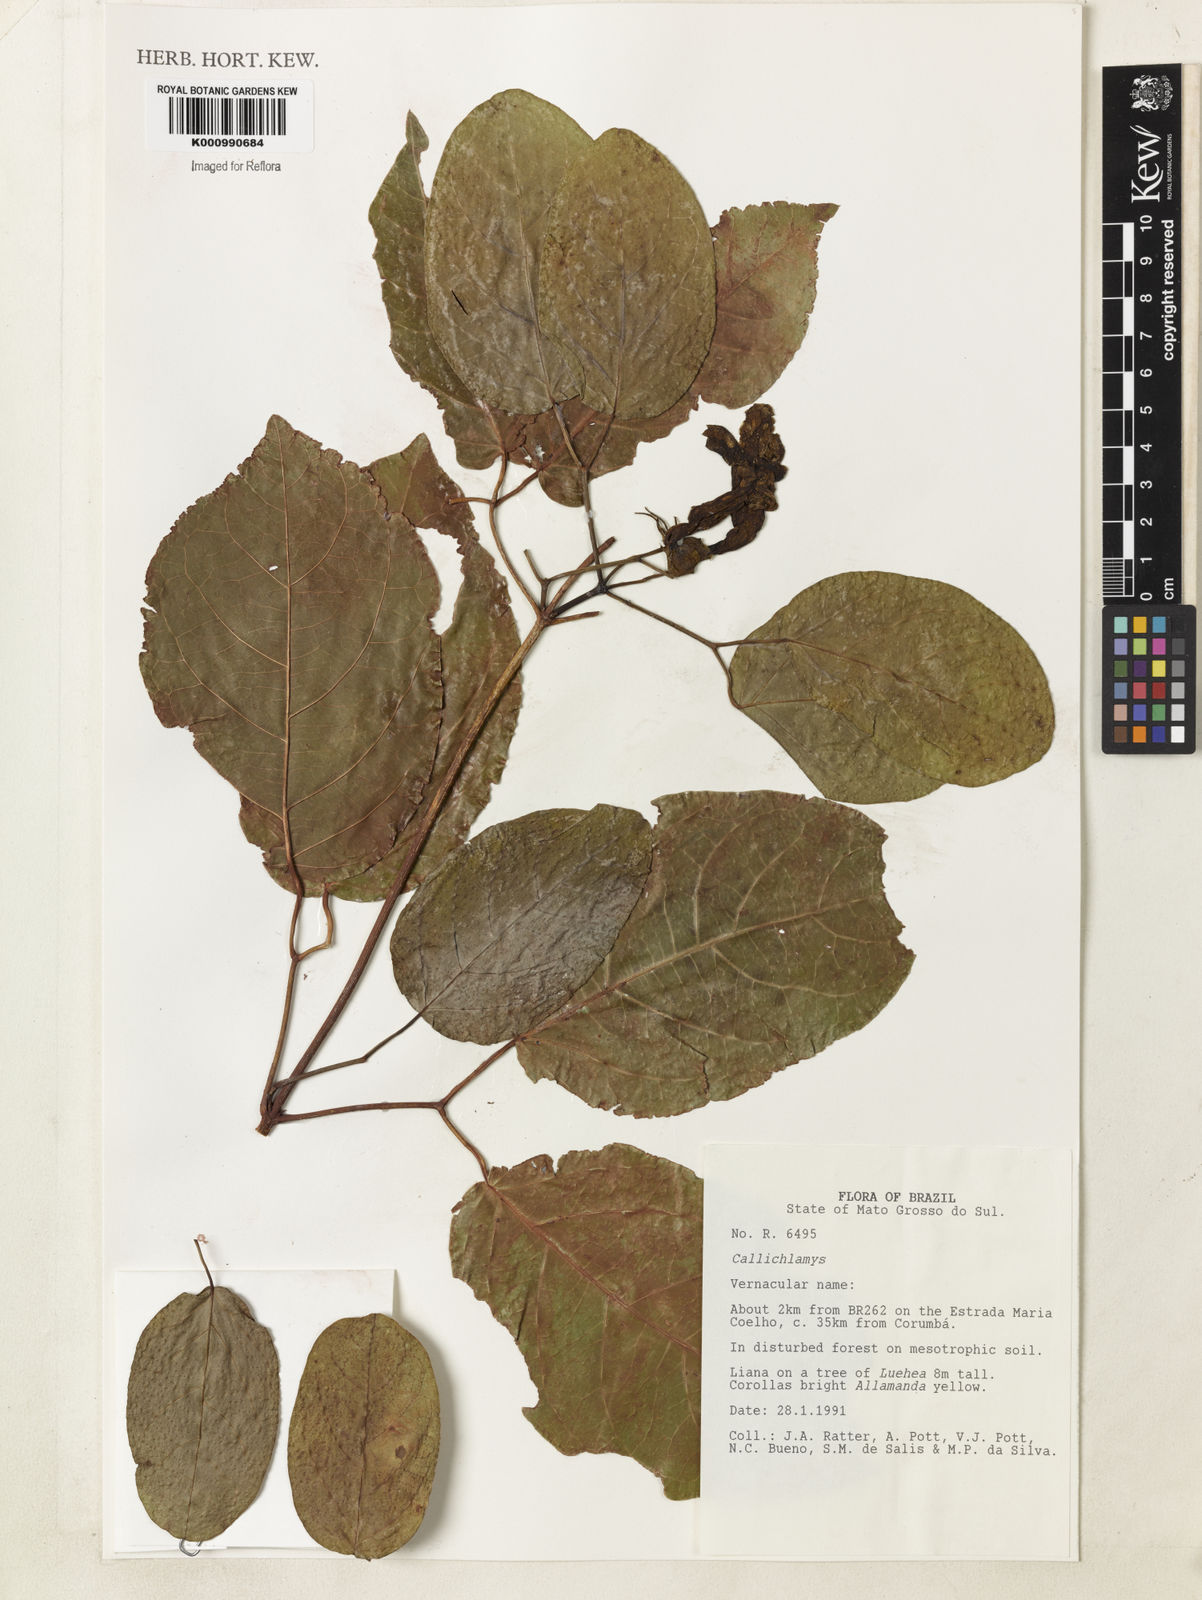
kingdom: Plantae
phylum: Tracheophyta
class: Magnoliopsida
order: Lamiales
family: Bignoniaceae
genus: Callichlamys
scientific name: Callichlamys
